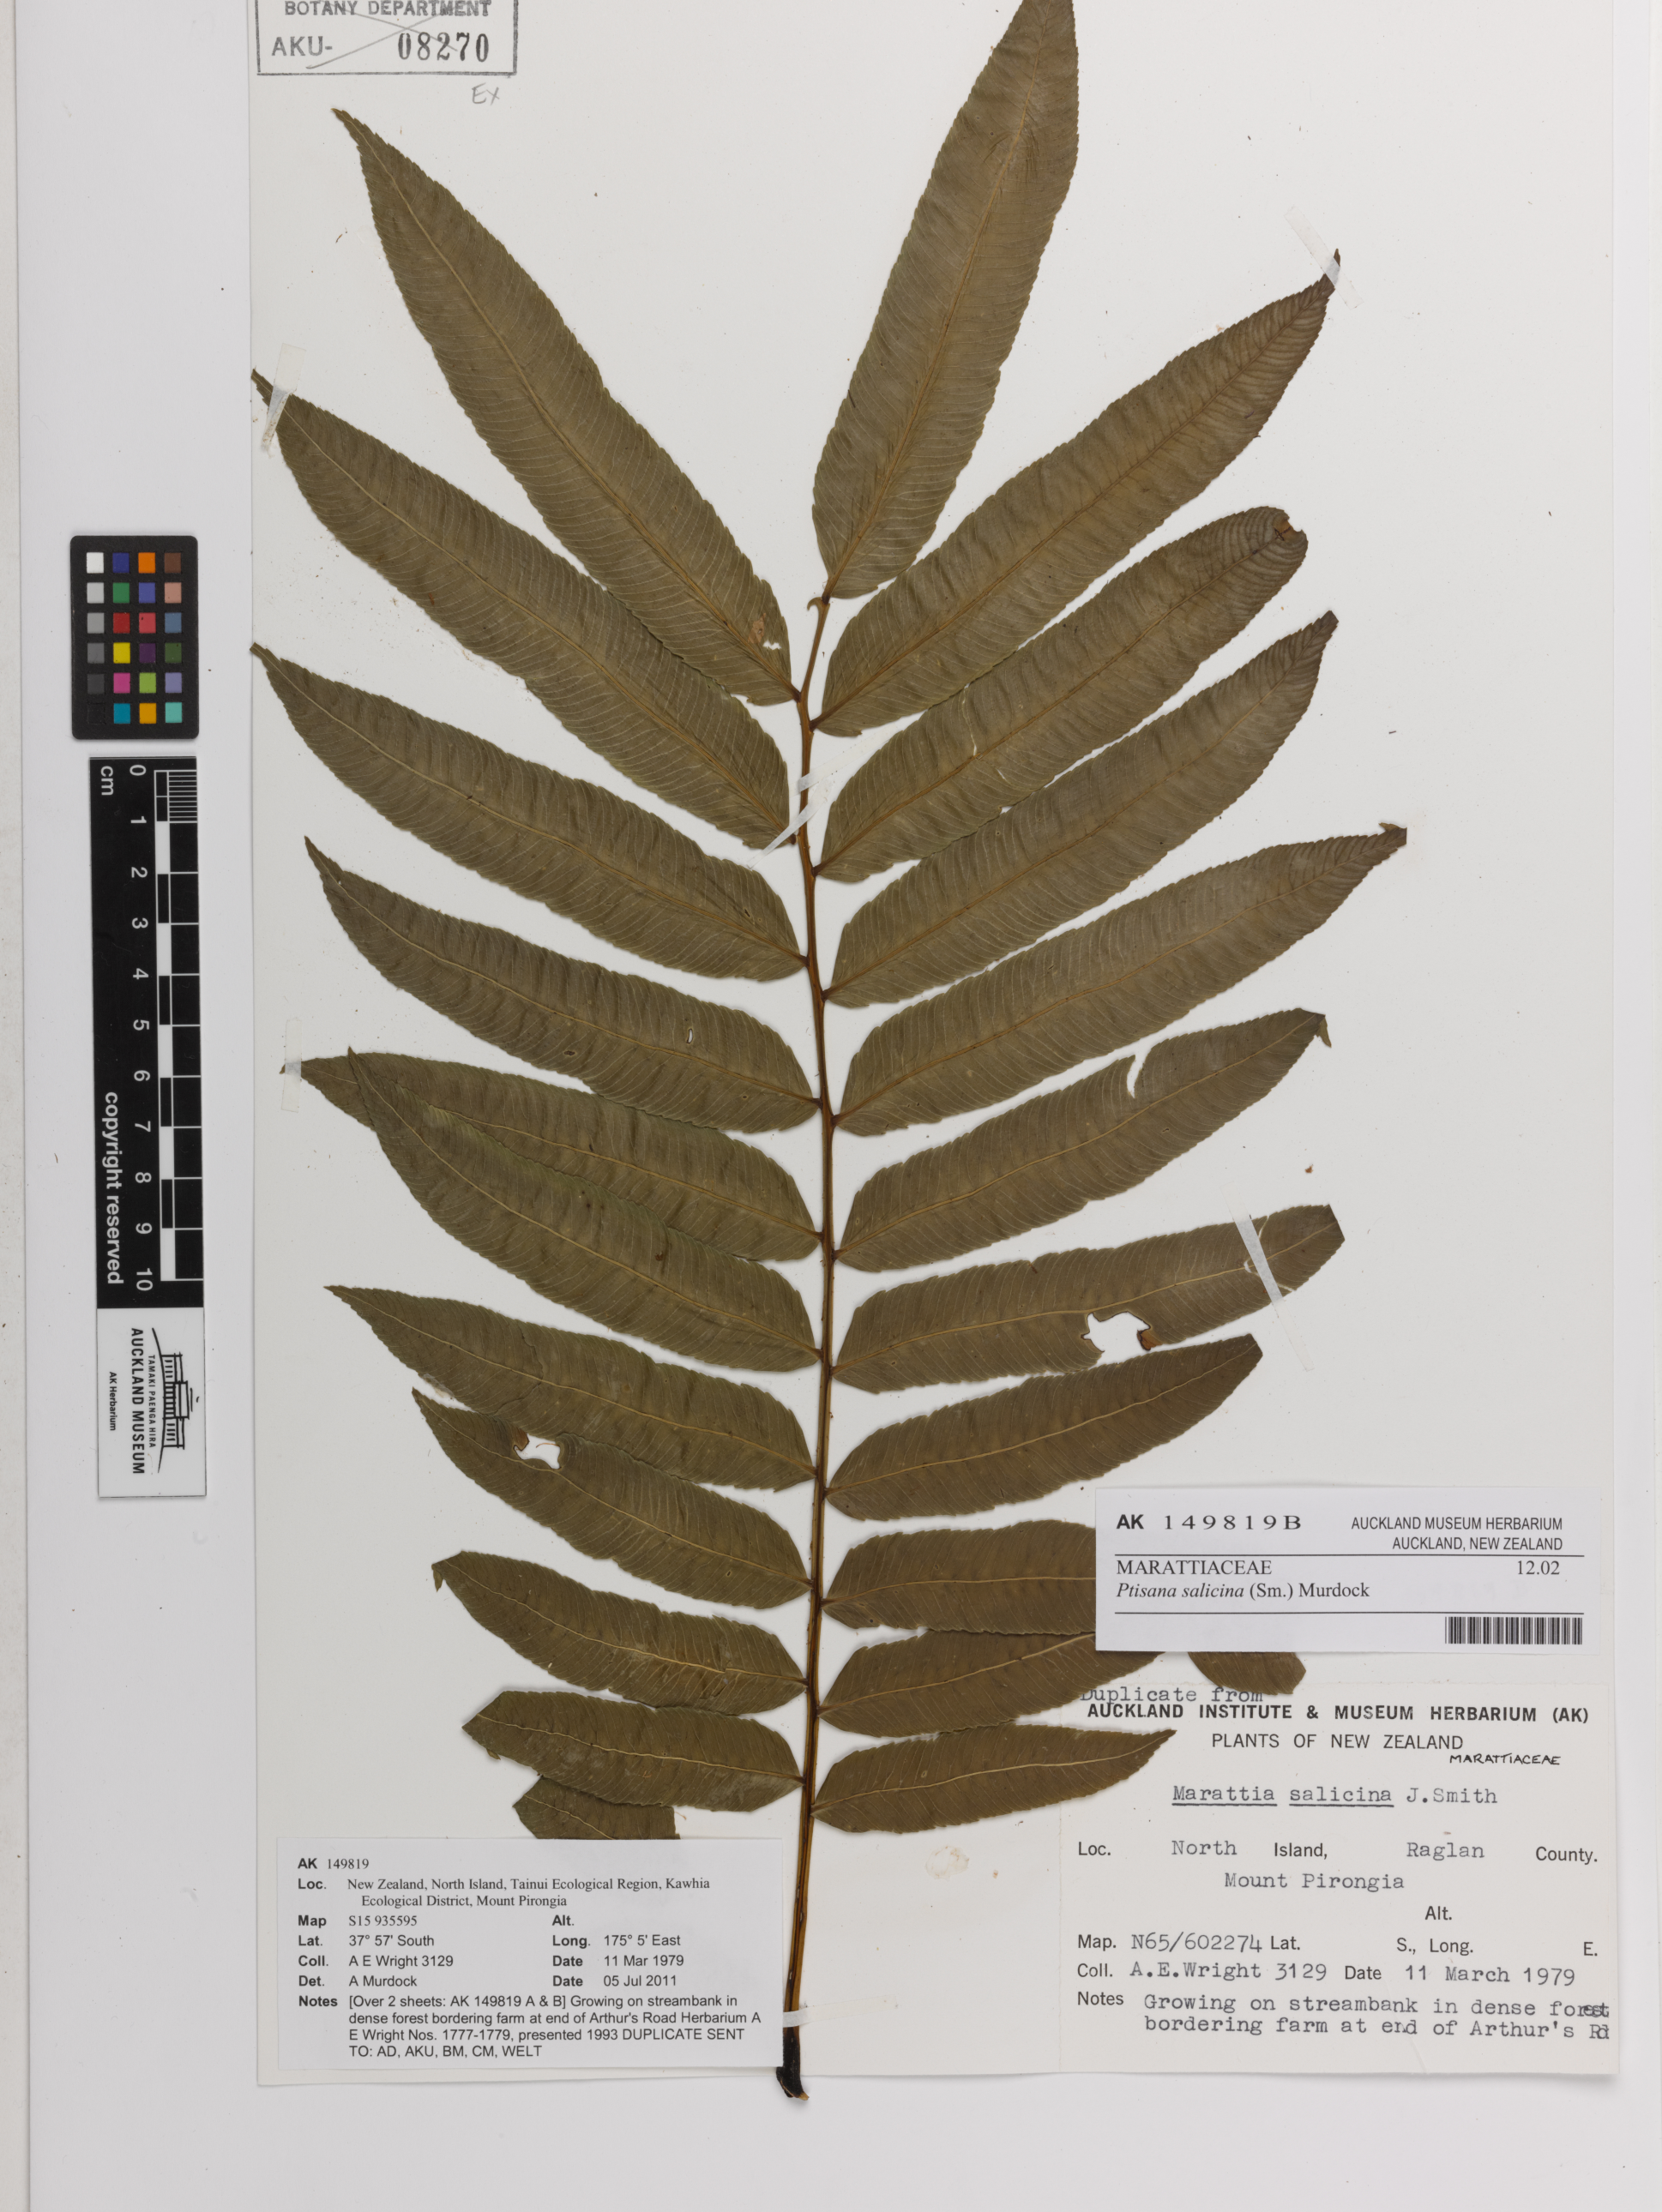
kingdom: Plantae
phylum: Tracheophyta
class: Polypodiopsida
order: Marattiales
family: Marattiaceae
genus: Ptisana
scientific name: Ptisana salicina
